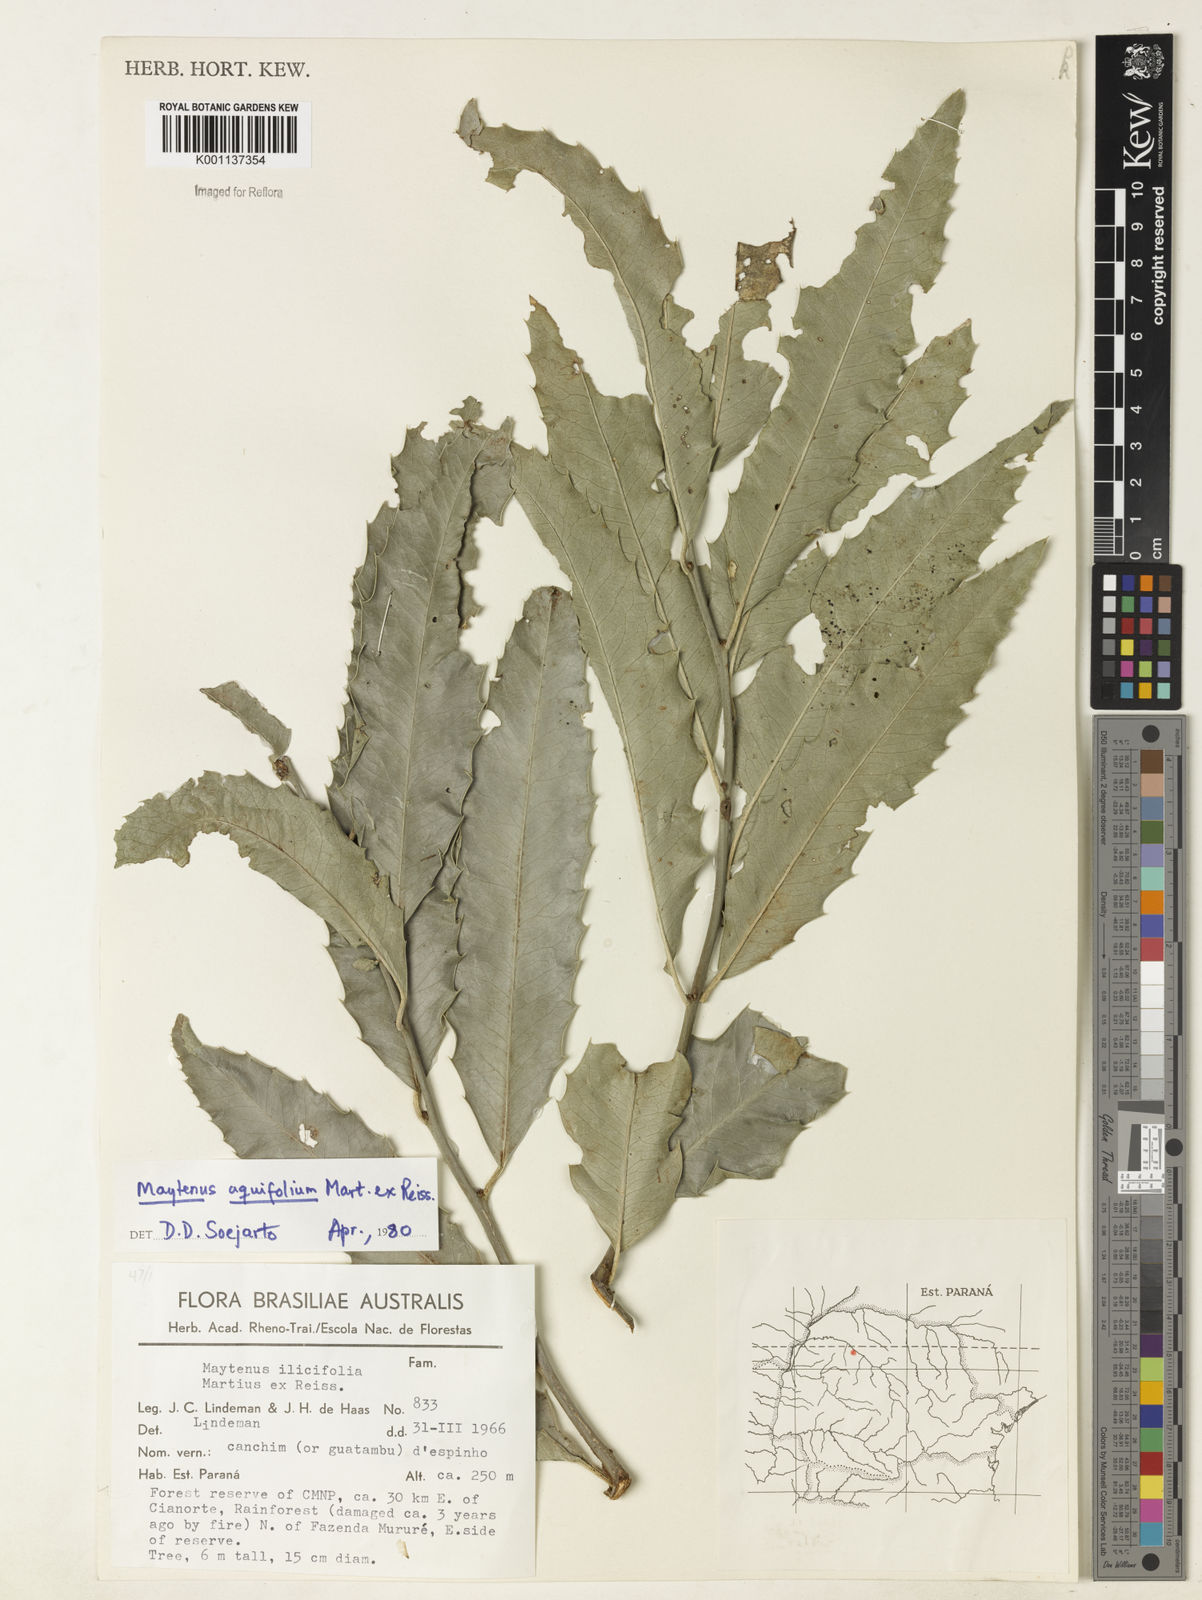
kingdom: Plantae
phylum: Tracheophyta
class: Magnoliopsida
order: Celastrales
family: Celastraceae
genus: Monteverdia
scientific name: Monteverdia aquifolium
